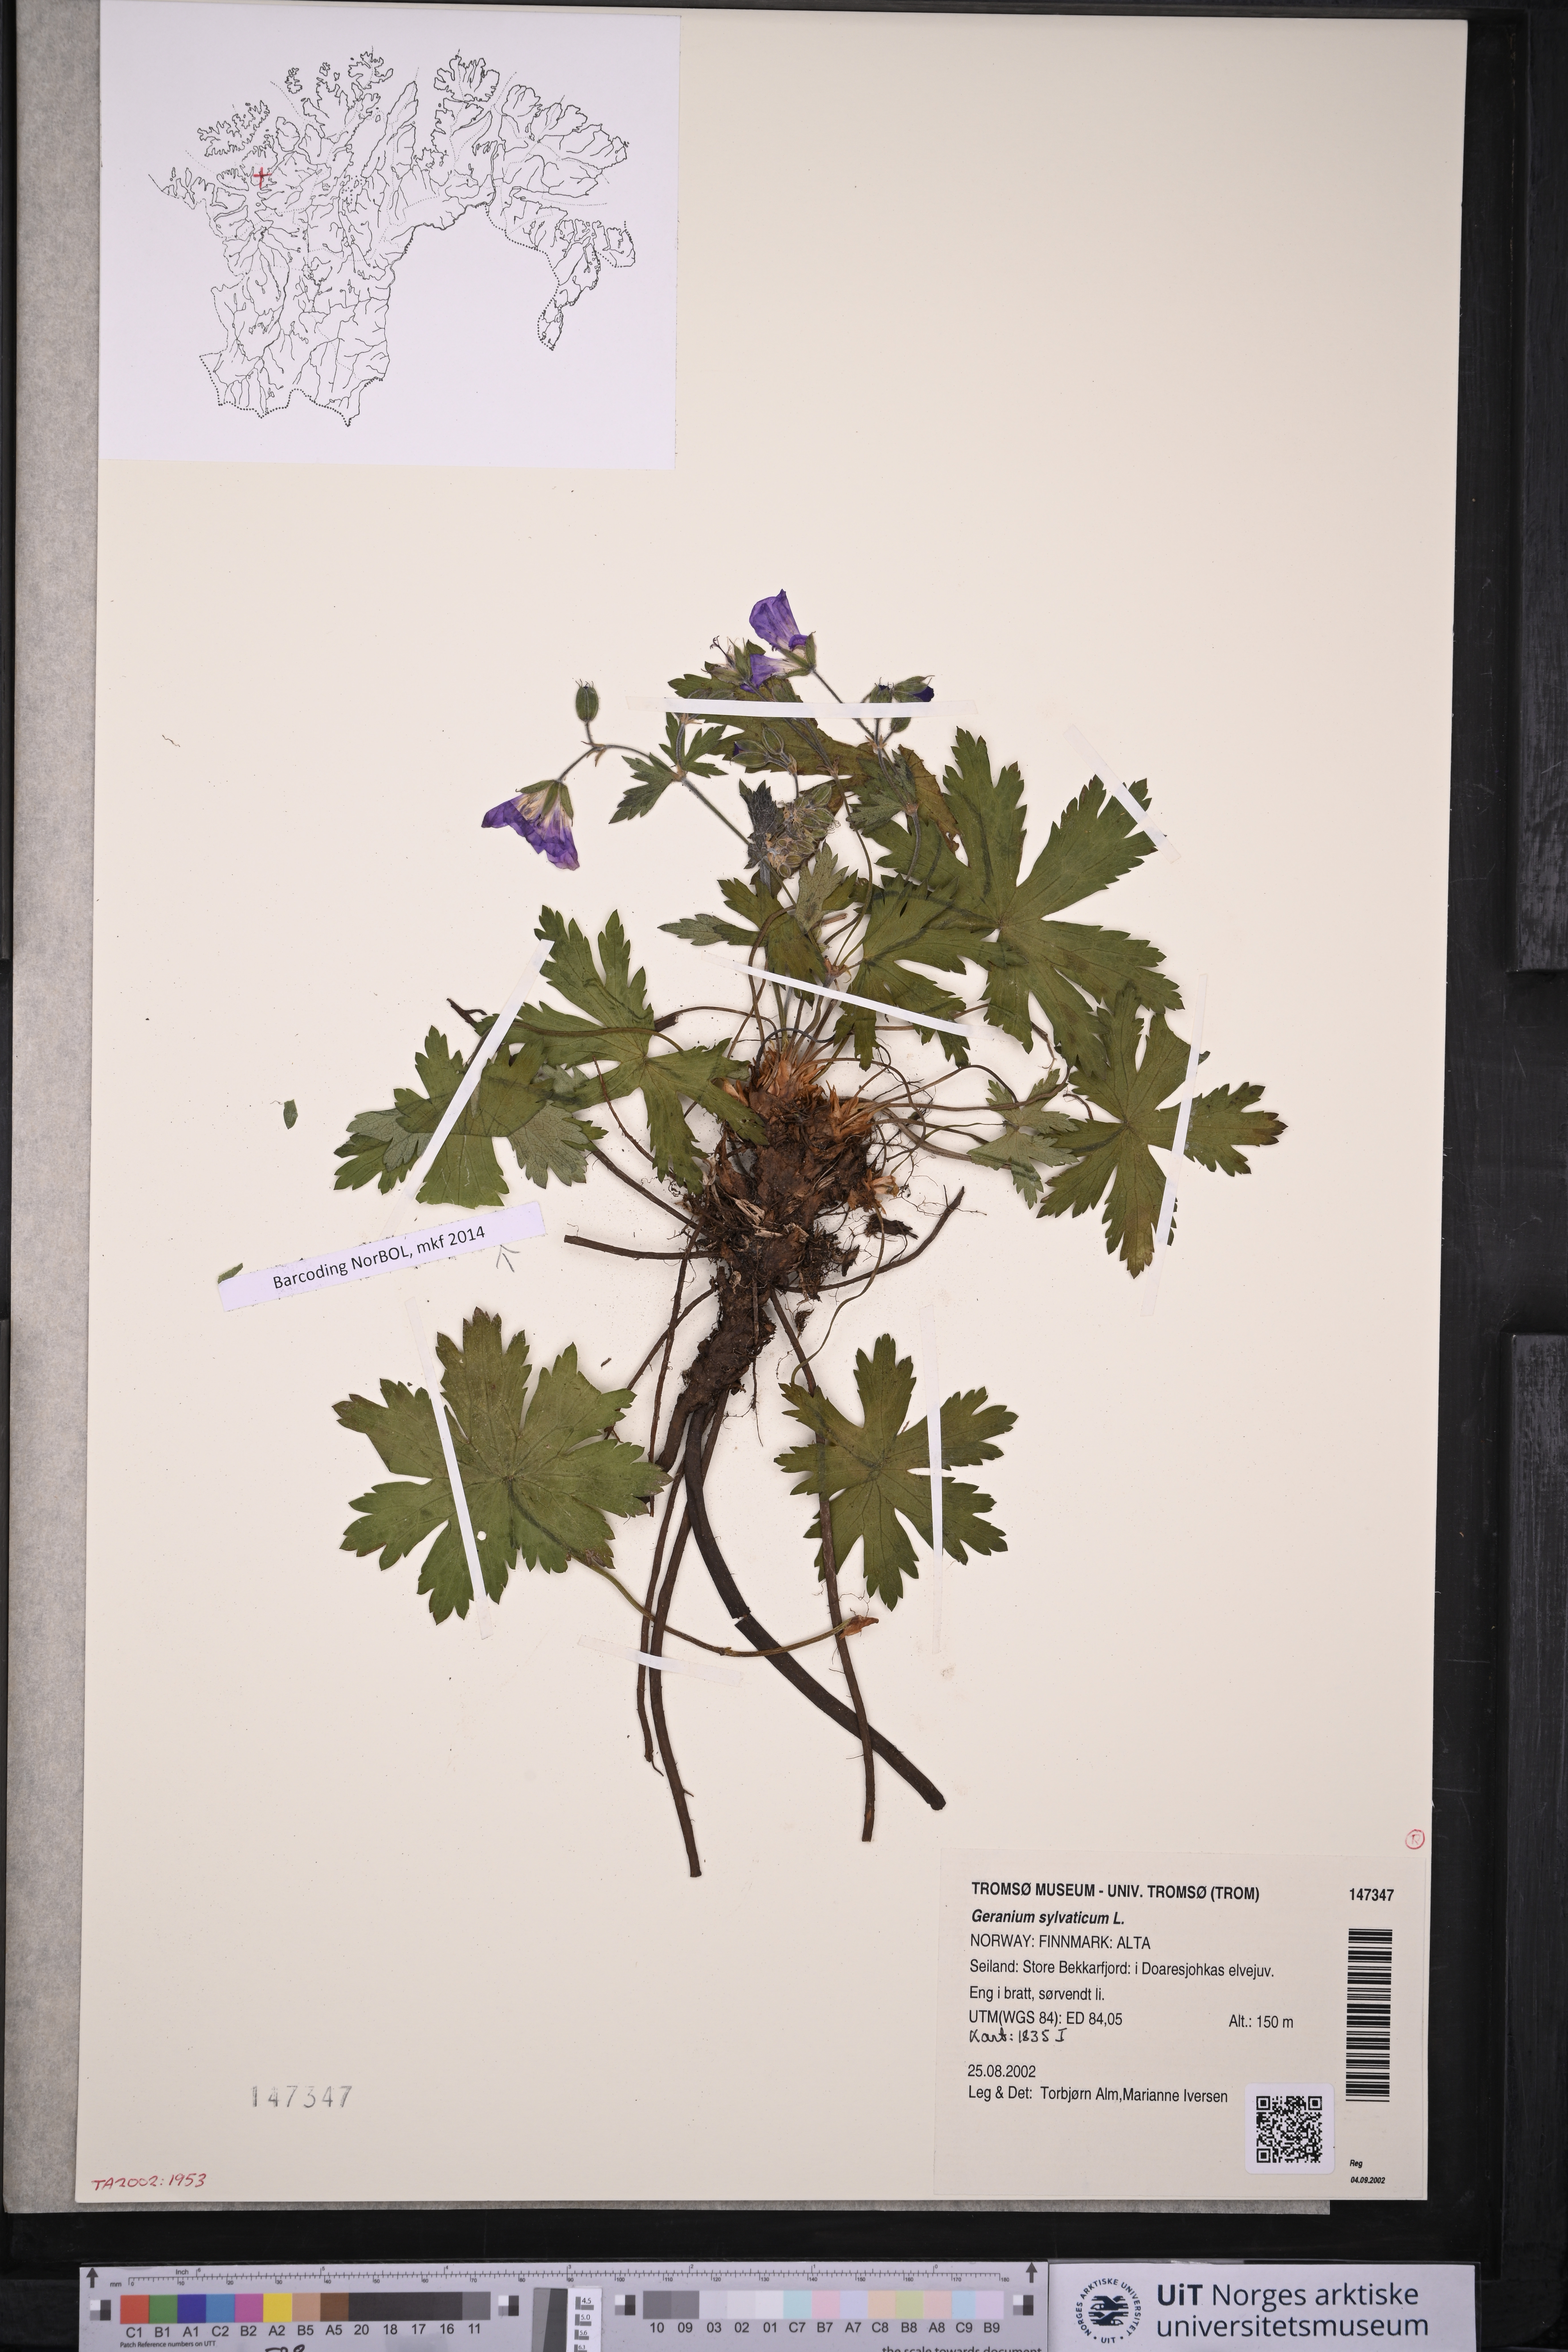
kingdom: Plantae
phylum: Tracheophyta
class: Magnoliopsida
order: Geraniales
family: Geraniaceae
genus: Geranium
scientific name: Geranium sylvaticum
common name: Wood crane's-bill
